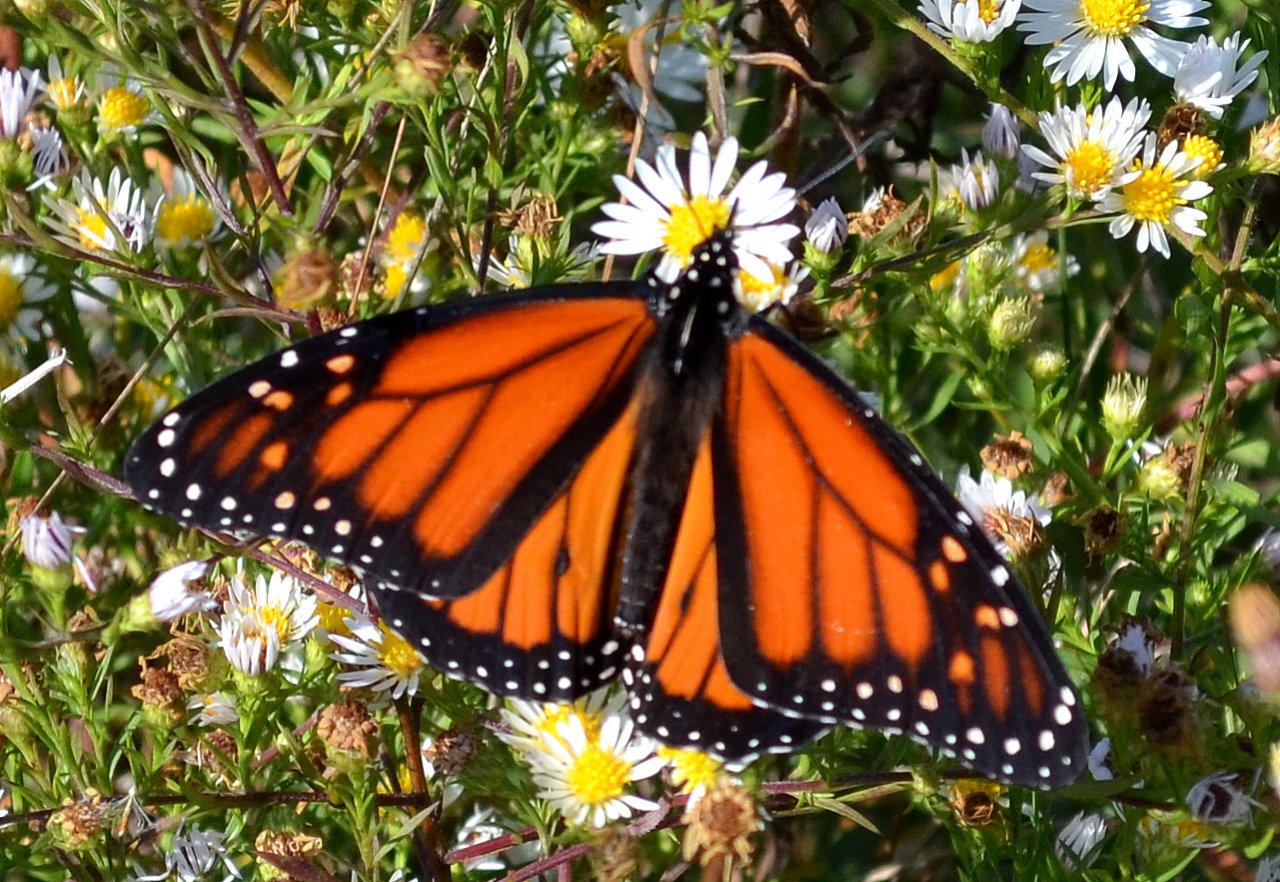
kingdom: Animalia
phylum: Arthropoda
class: Insecta
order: Lepidoptera
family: Nymphalidae
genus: Danaus
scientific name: Danaus plexippus
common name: Monarch
